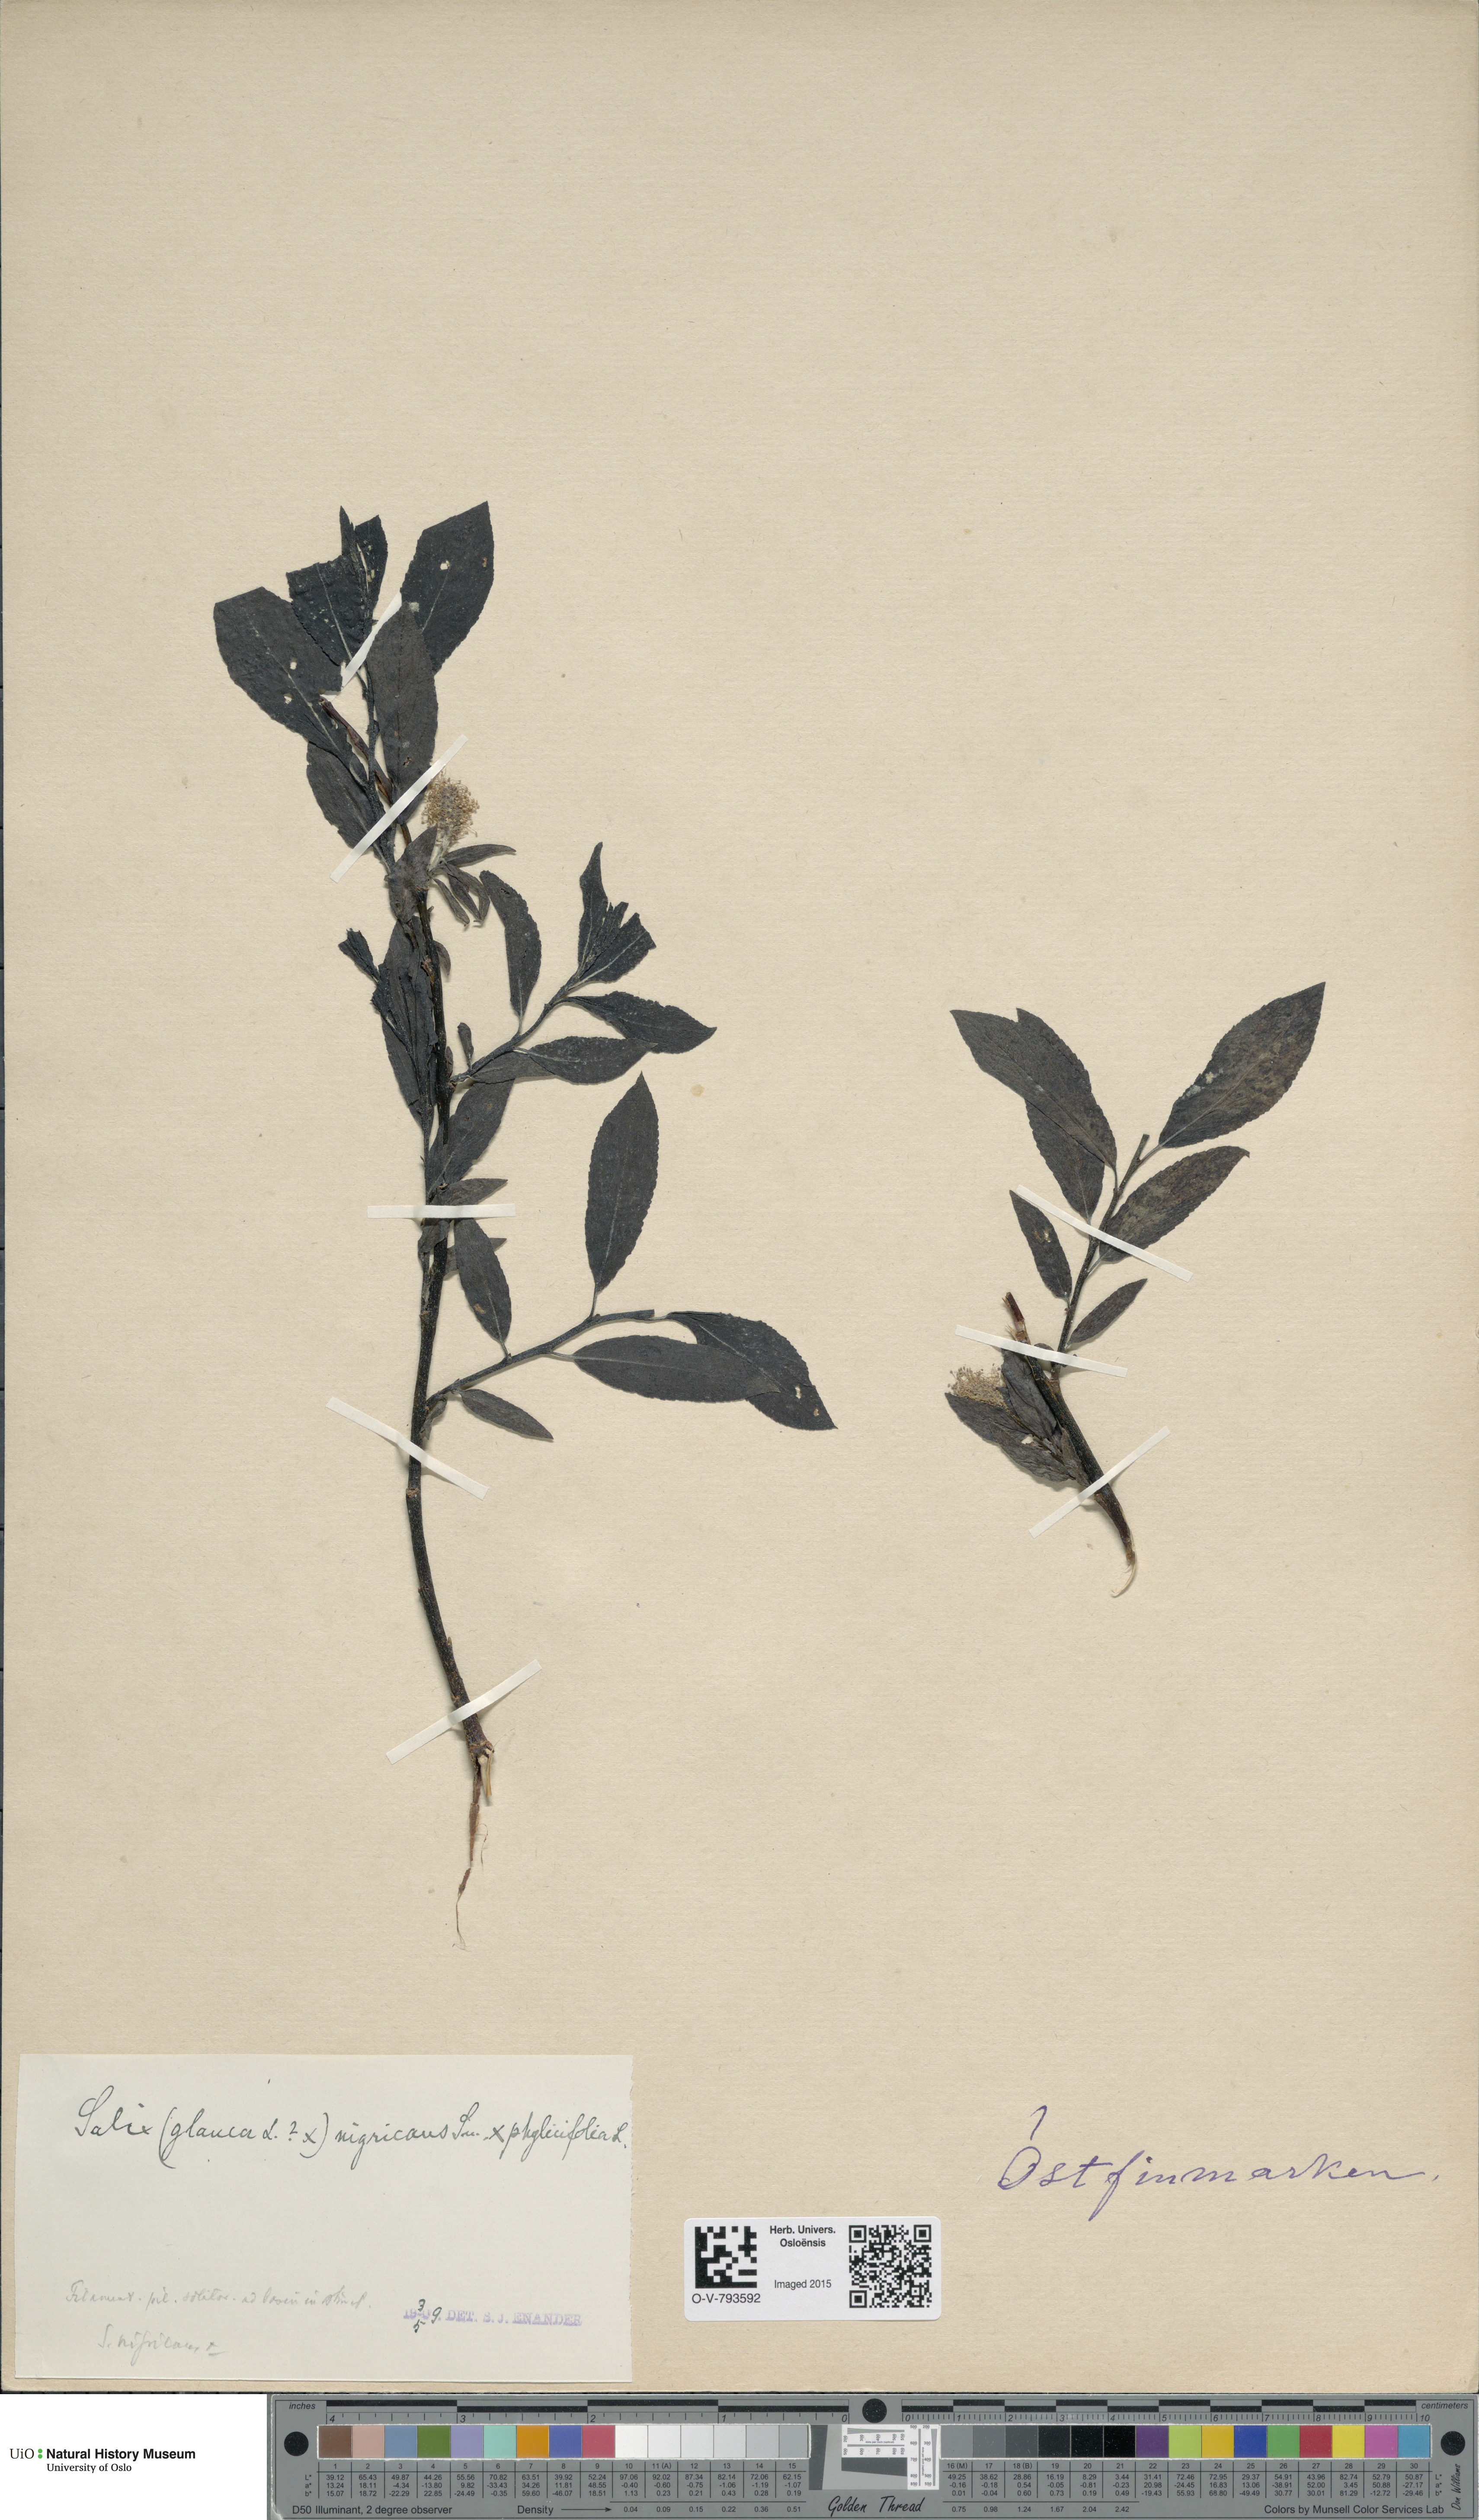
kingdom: Plantae
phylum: Tracheophyta
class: Magnoliopsida
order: Malpighiales
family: Salicaceae
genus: Salix
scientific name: Salix myrsinifolia
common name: Dark-leaved willow
